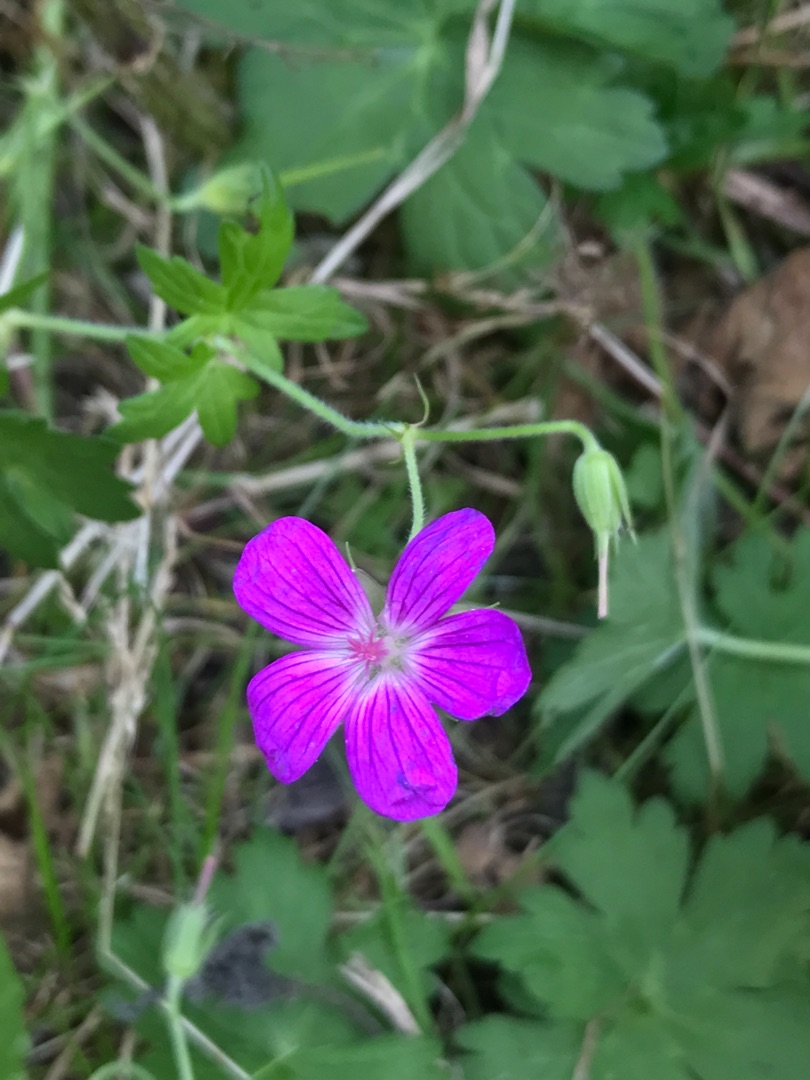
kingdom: Plantae
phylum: Tracheophyta
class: Magnoliopsida
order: Geraniales
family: Geraniaceae
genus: Geranium
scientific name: Geranium palustre
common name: Kær-storkenæb
